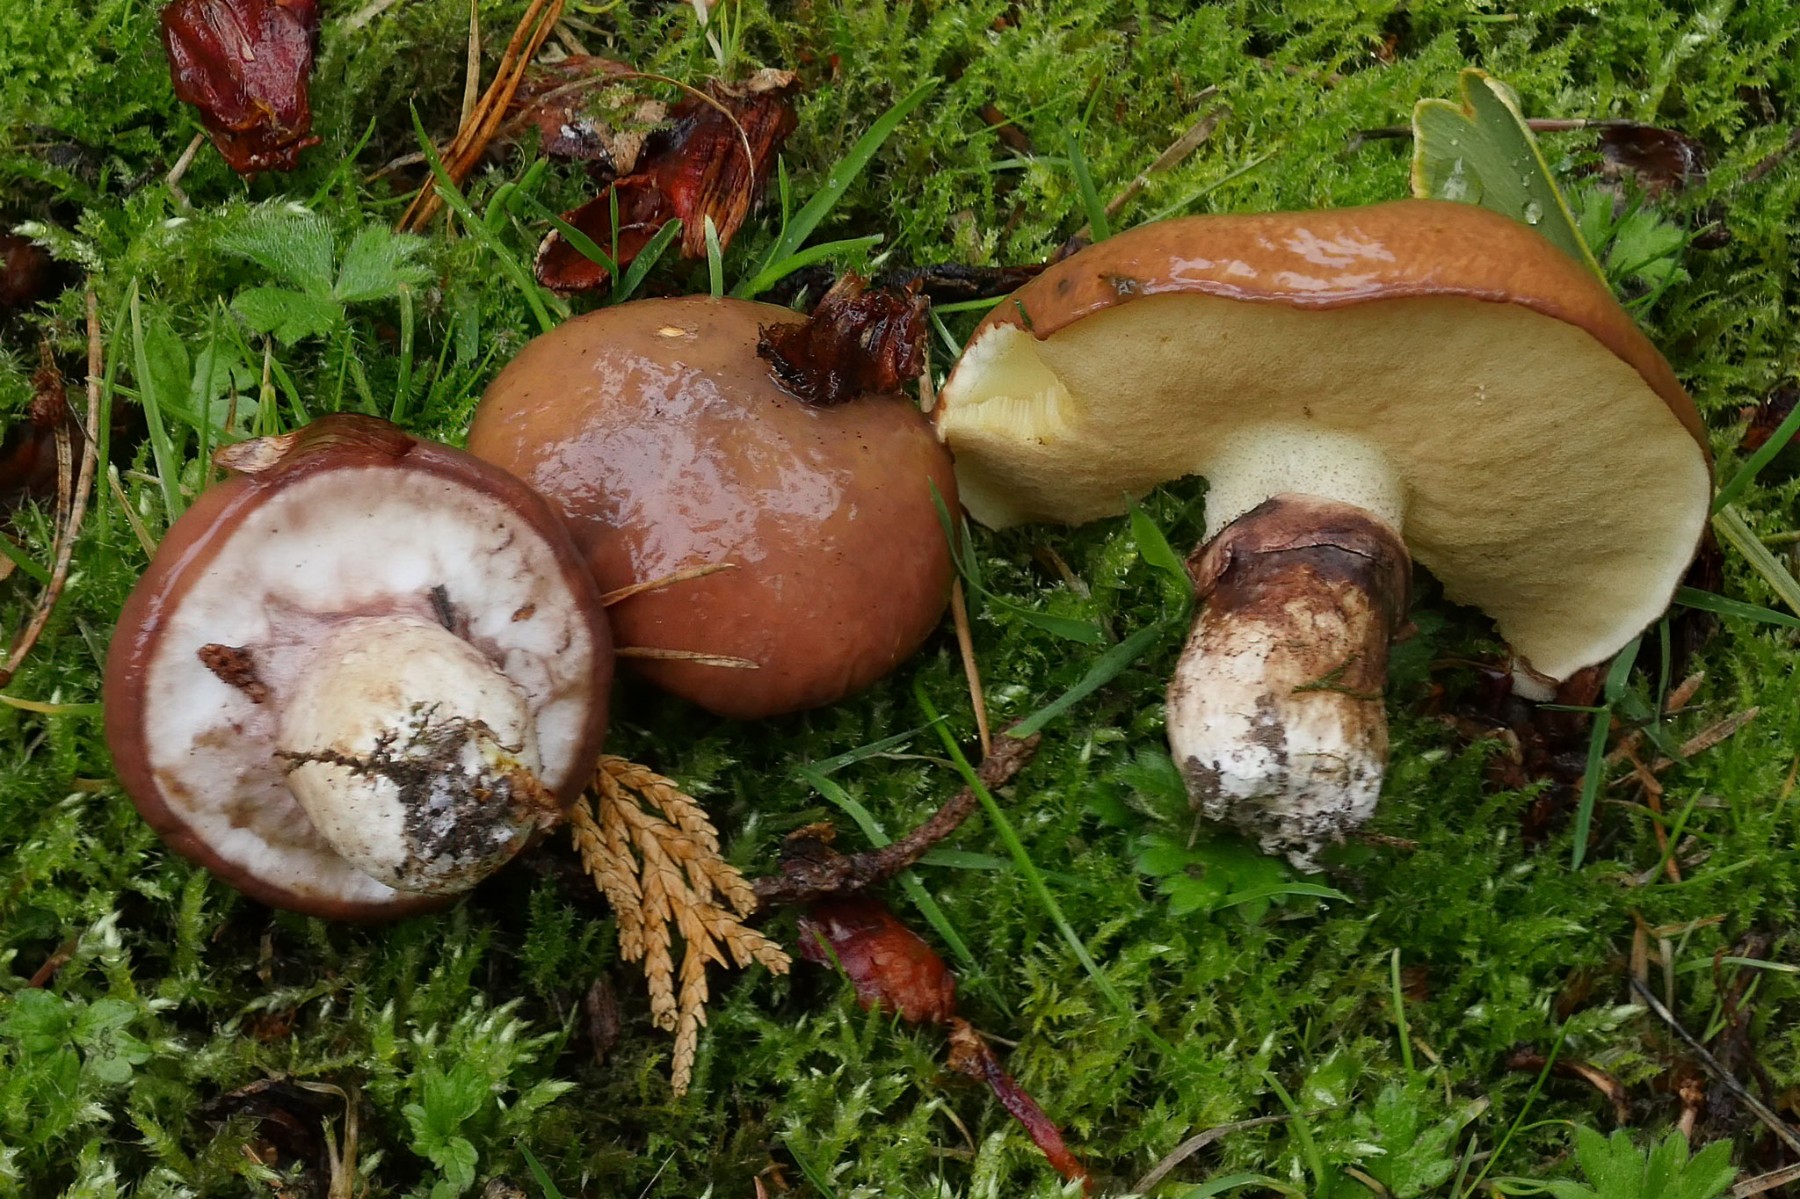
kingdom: Fungi
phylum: Basidiomycota
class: Agaricomycetes
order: Boletales
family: Suillaceae
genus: Suillus
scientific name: Suillus luteus
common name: brungul slimrørhat
